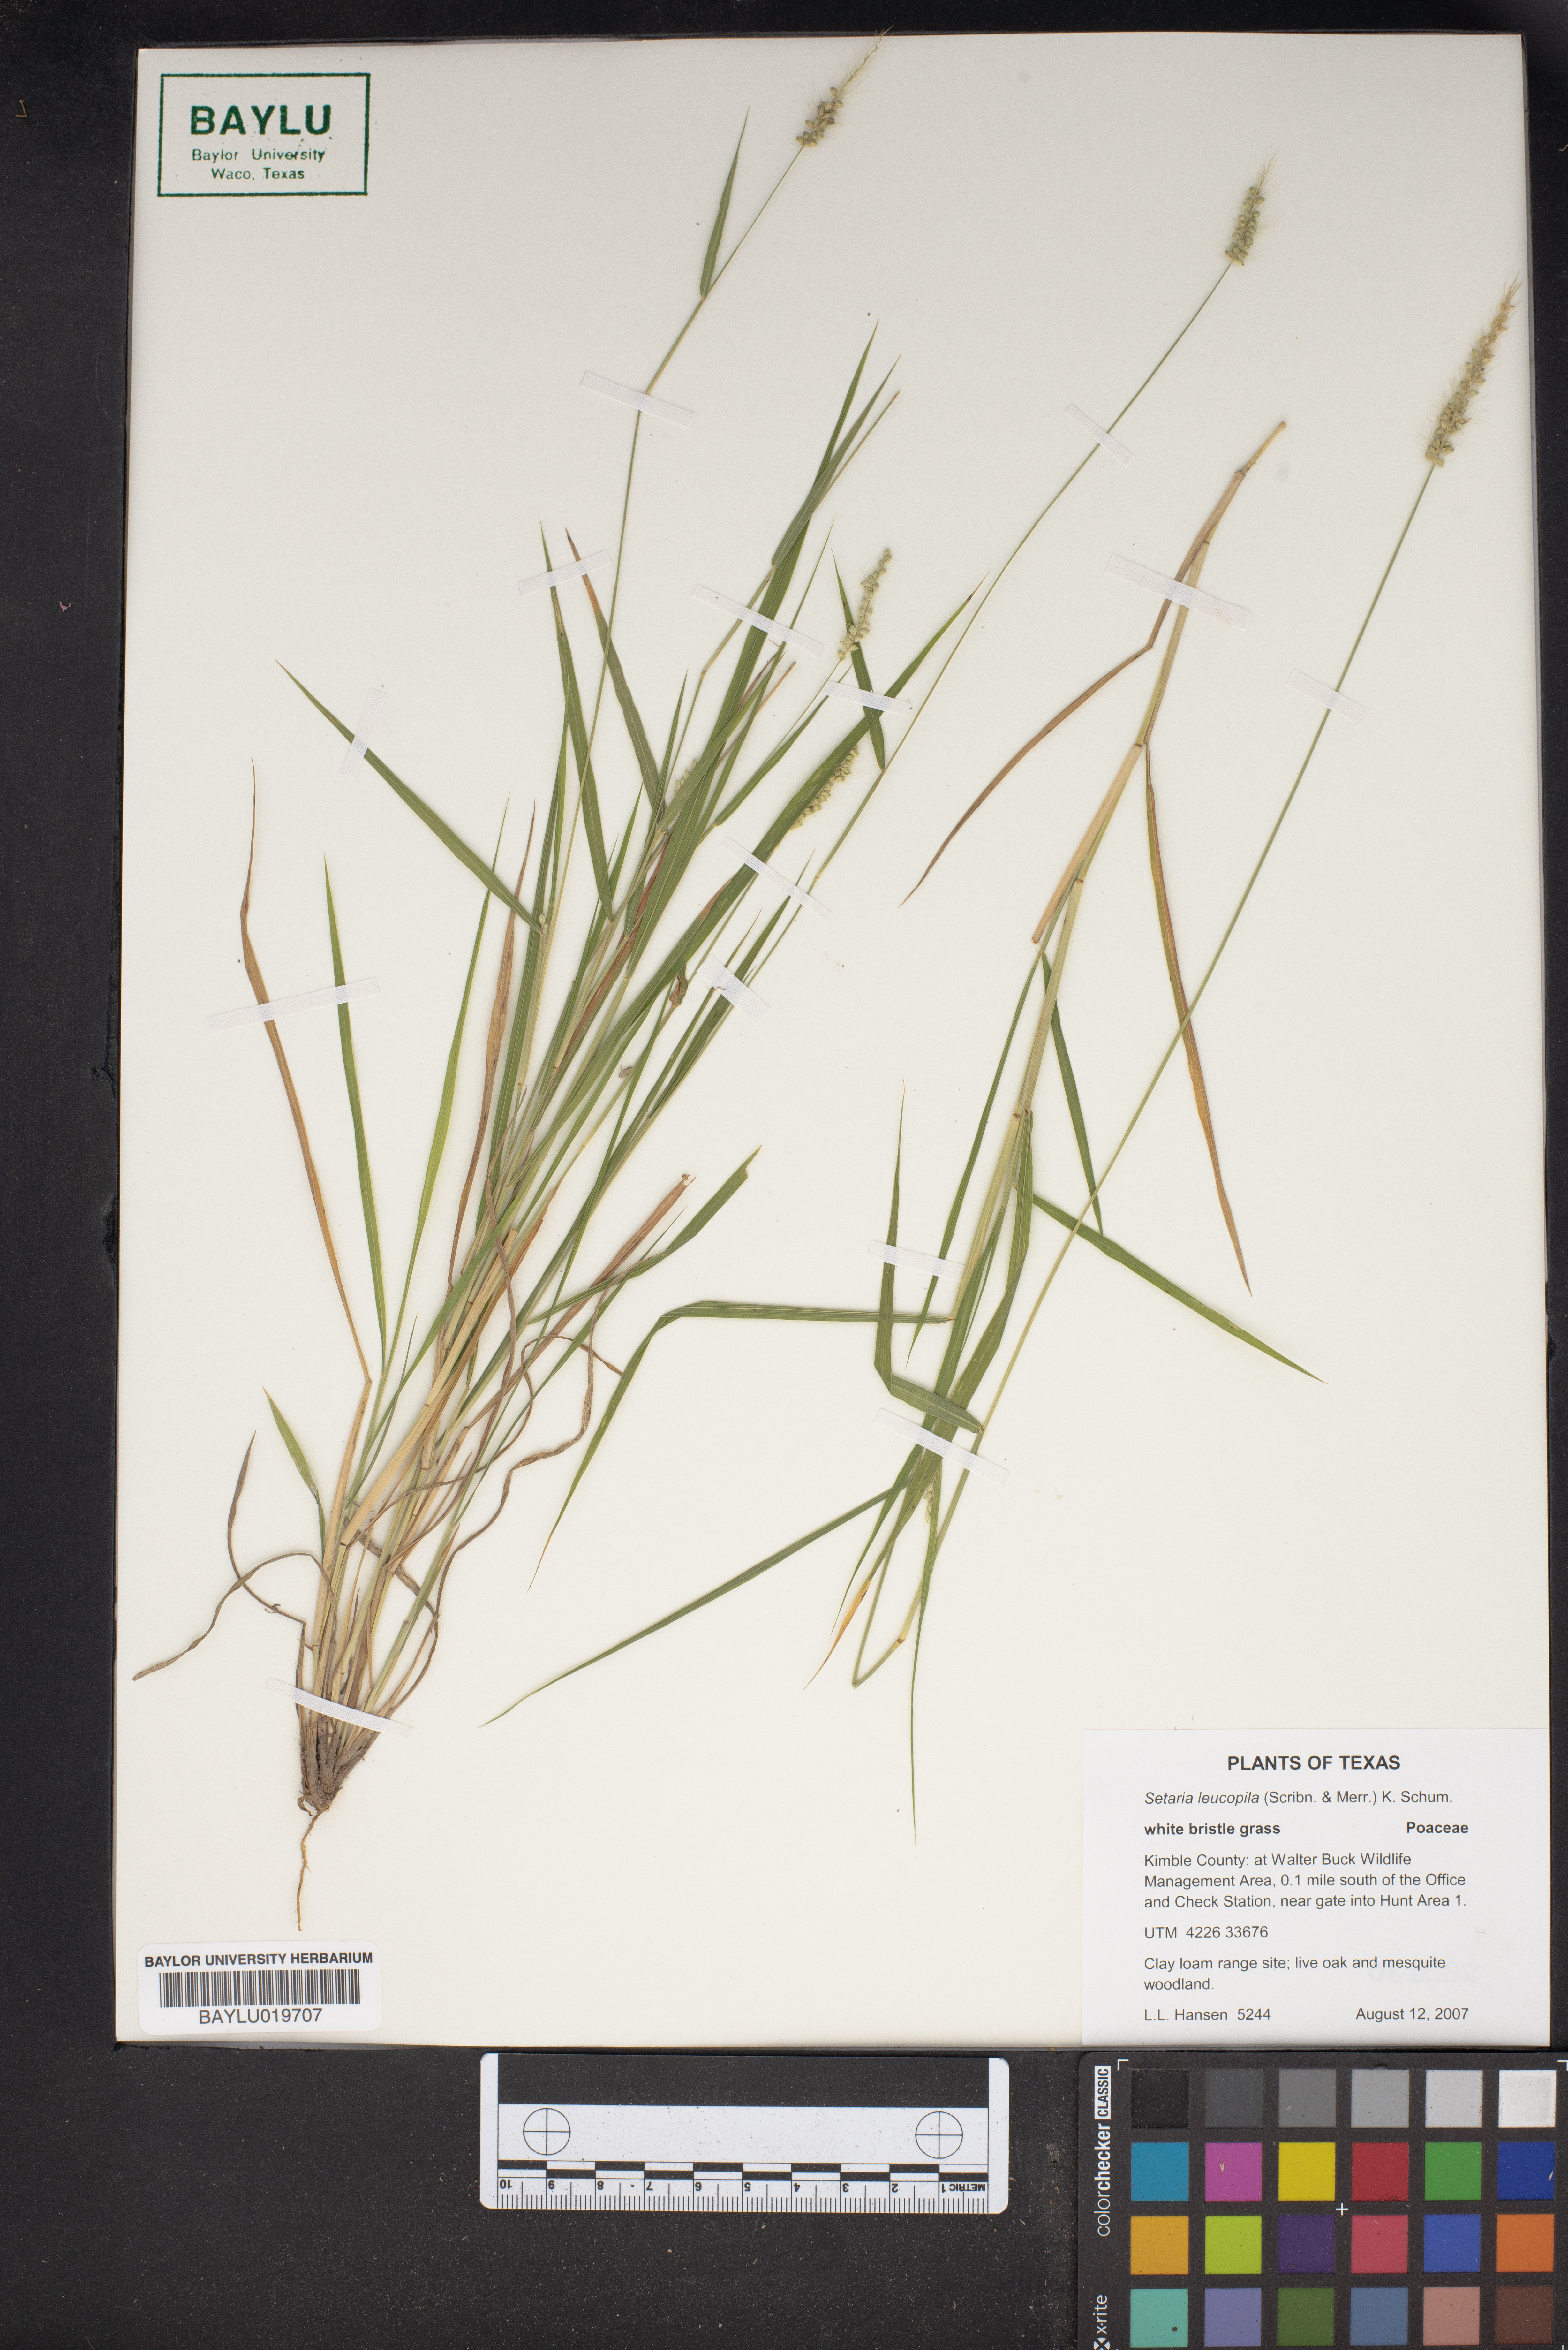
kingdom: Plantae
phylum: Tracheophyta
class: Liliopsida
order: Poales
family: Poaceae
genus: Setaria
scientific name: Setaria leucopila
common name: Plains bristle grass
